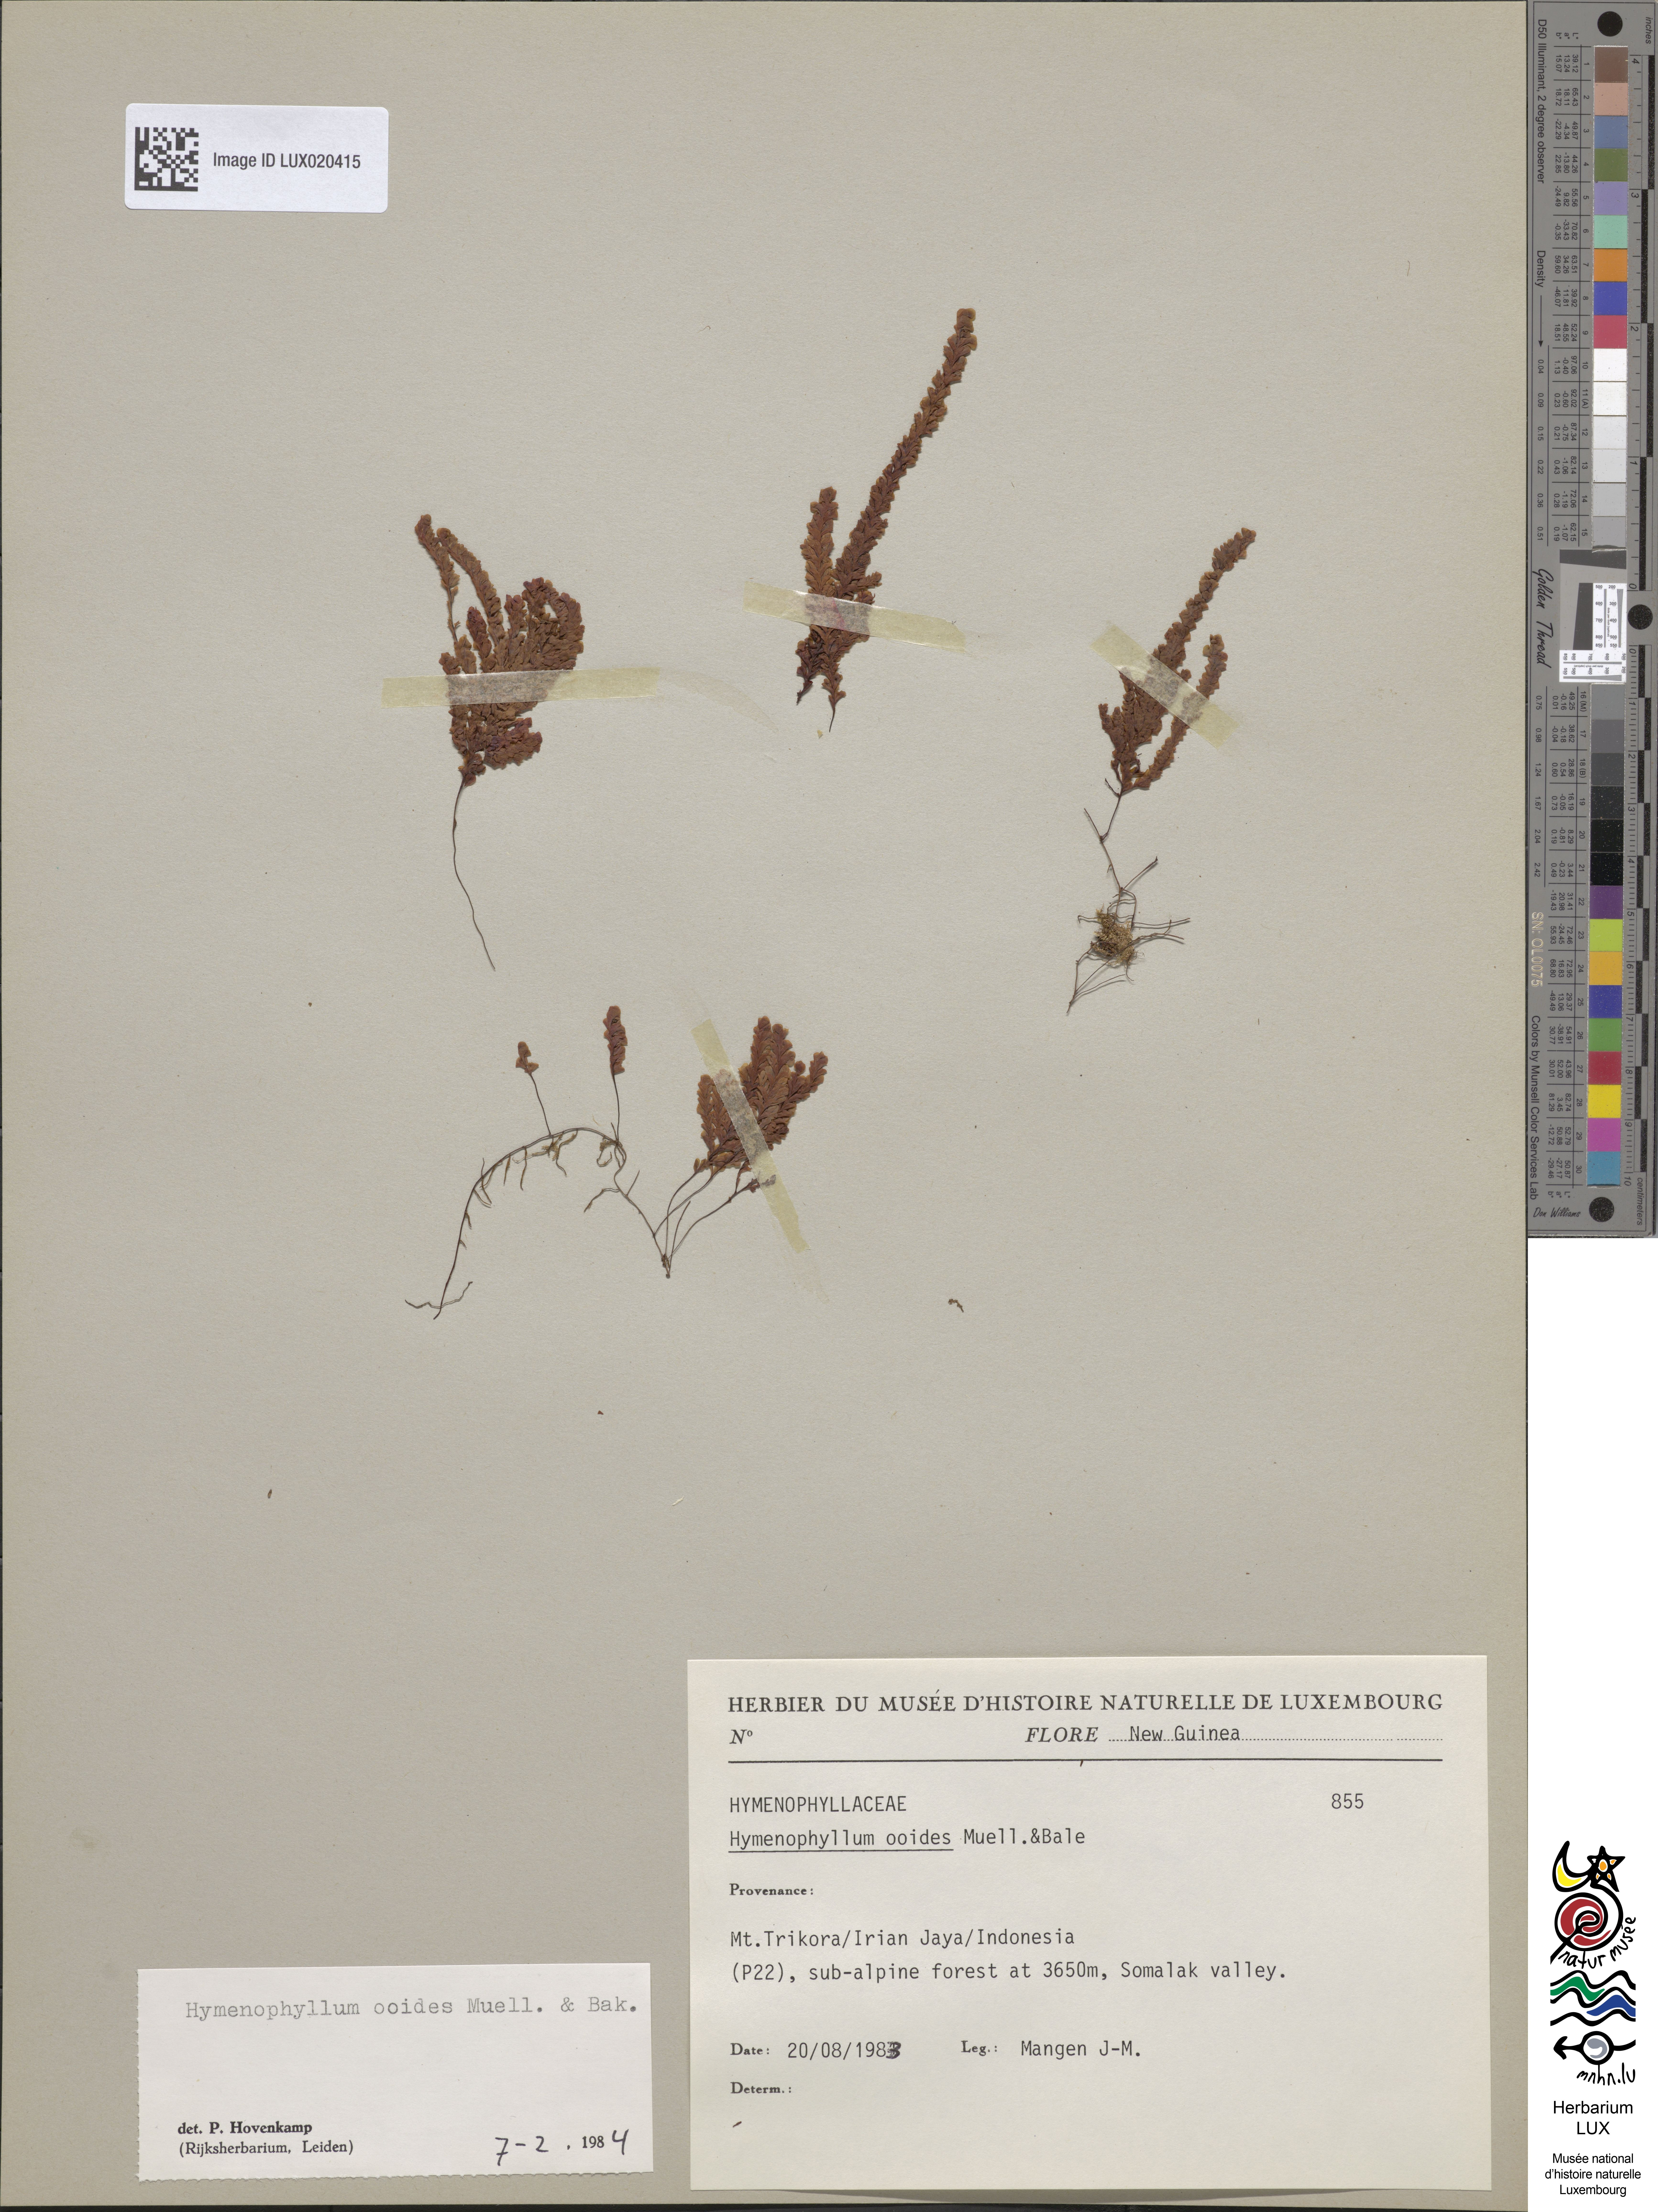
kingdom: Plantae
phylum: Tracheophyta
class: Polypodiopsida
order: Hymenophyllales
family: Hymenophyllaceae
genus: Hymenophyllum
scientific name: Hymenophyllum ooides
